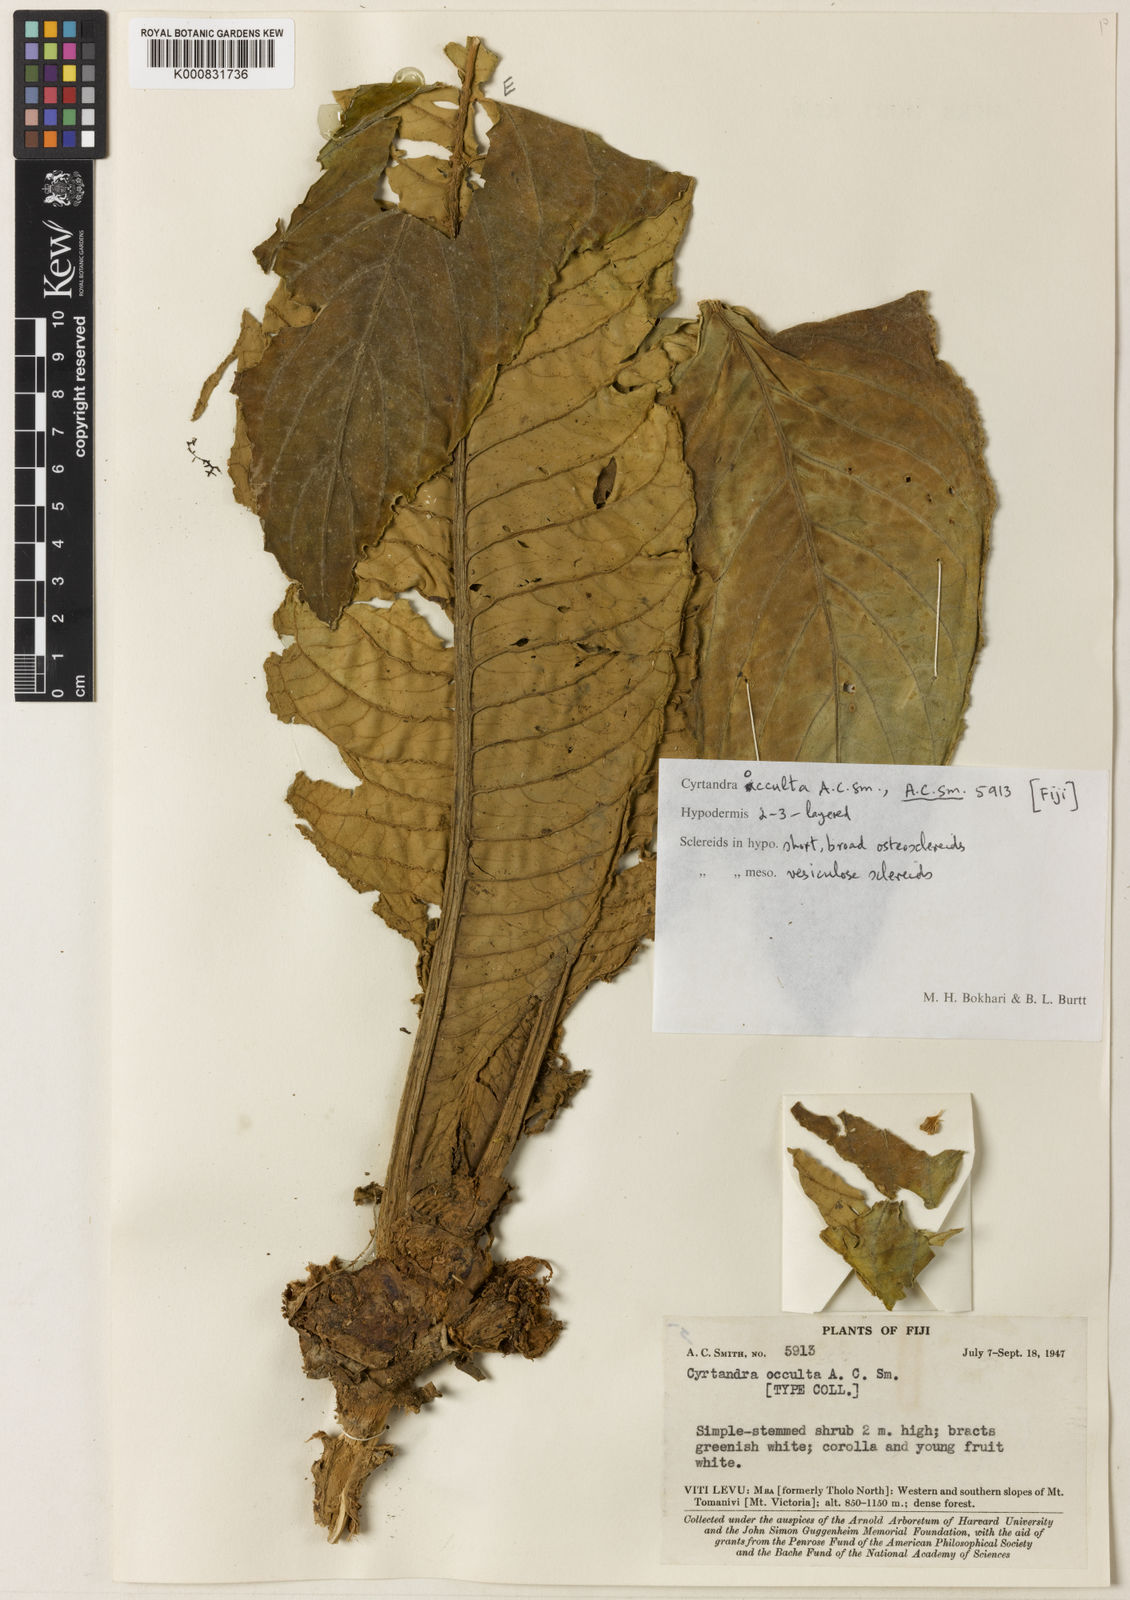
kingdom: Plantae
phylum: Tracheophyta
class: Magnoliopsida
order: Lamiales
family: Gesneriaceae
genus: Cyrtandra
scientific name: Cyrtandra occulta
